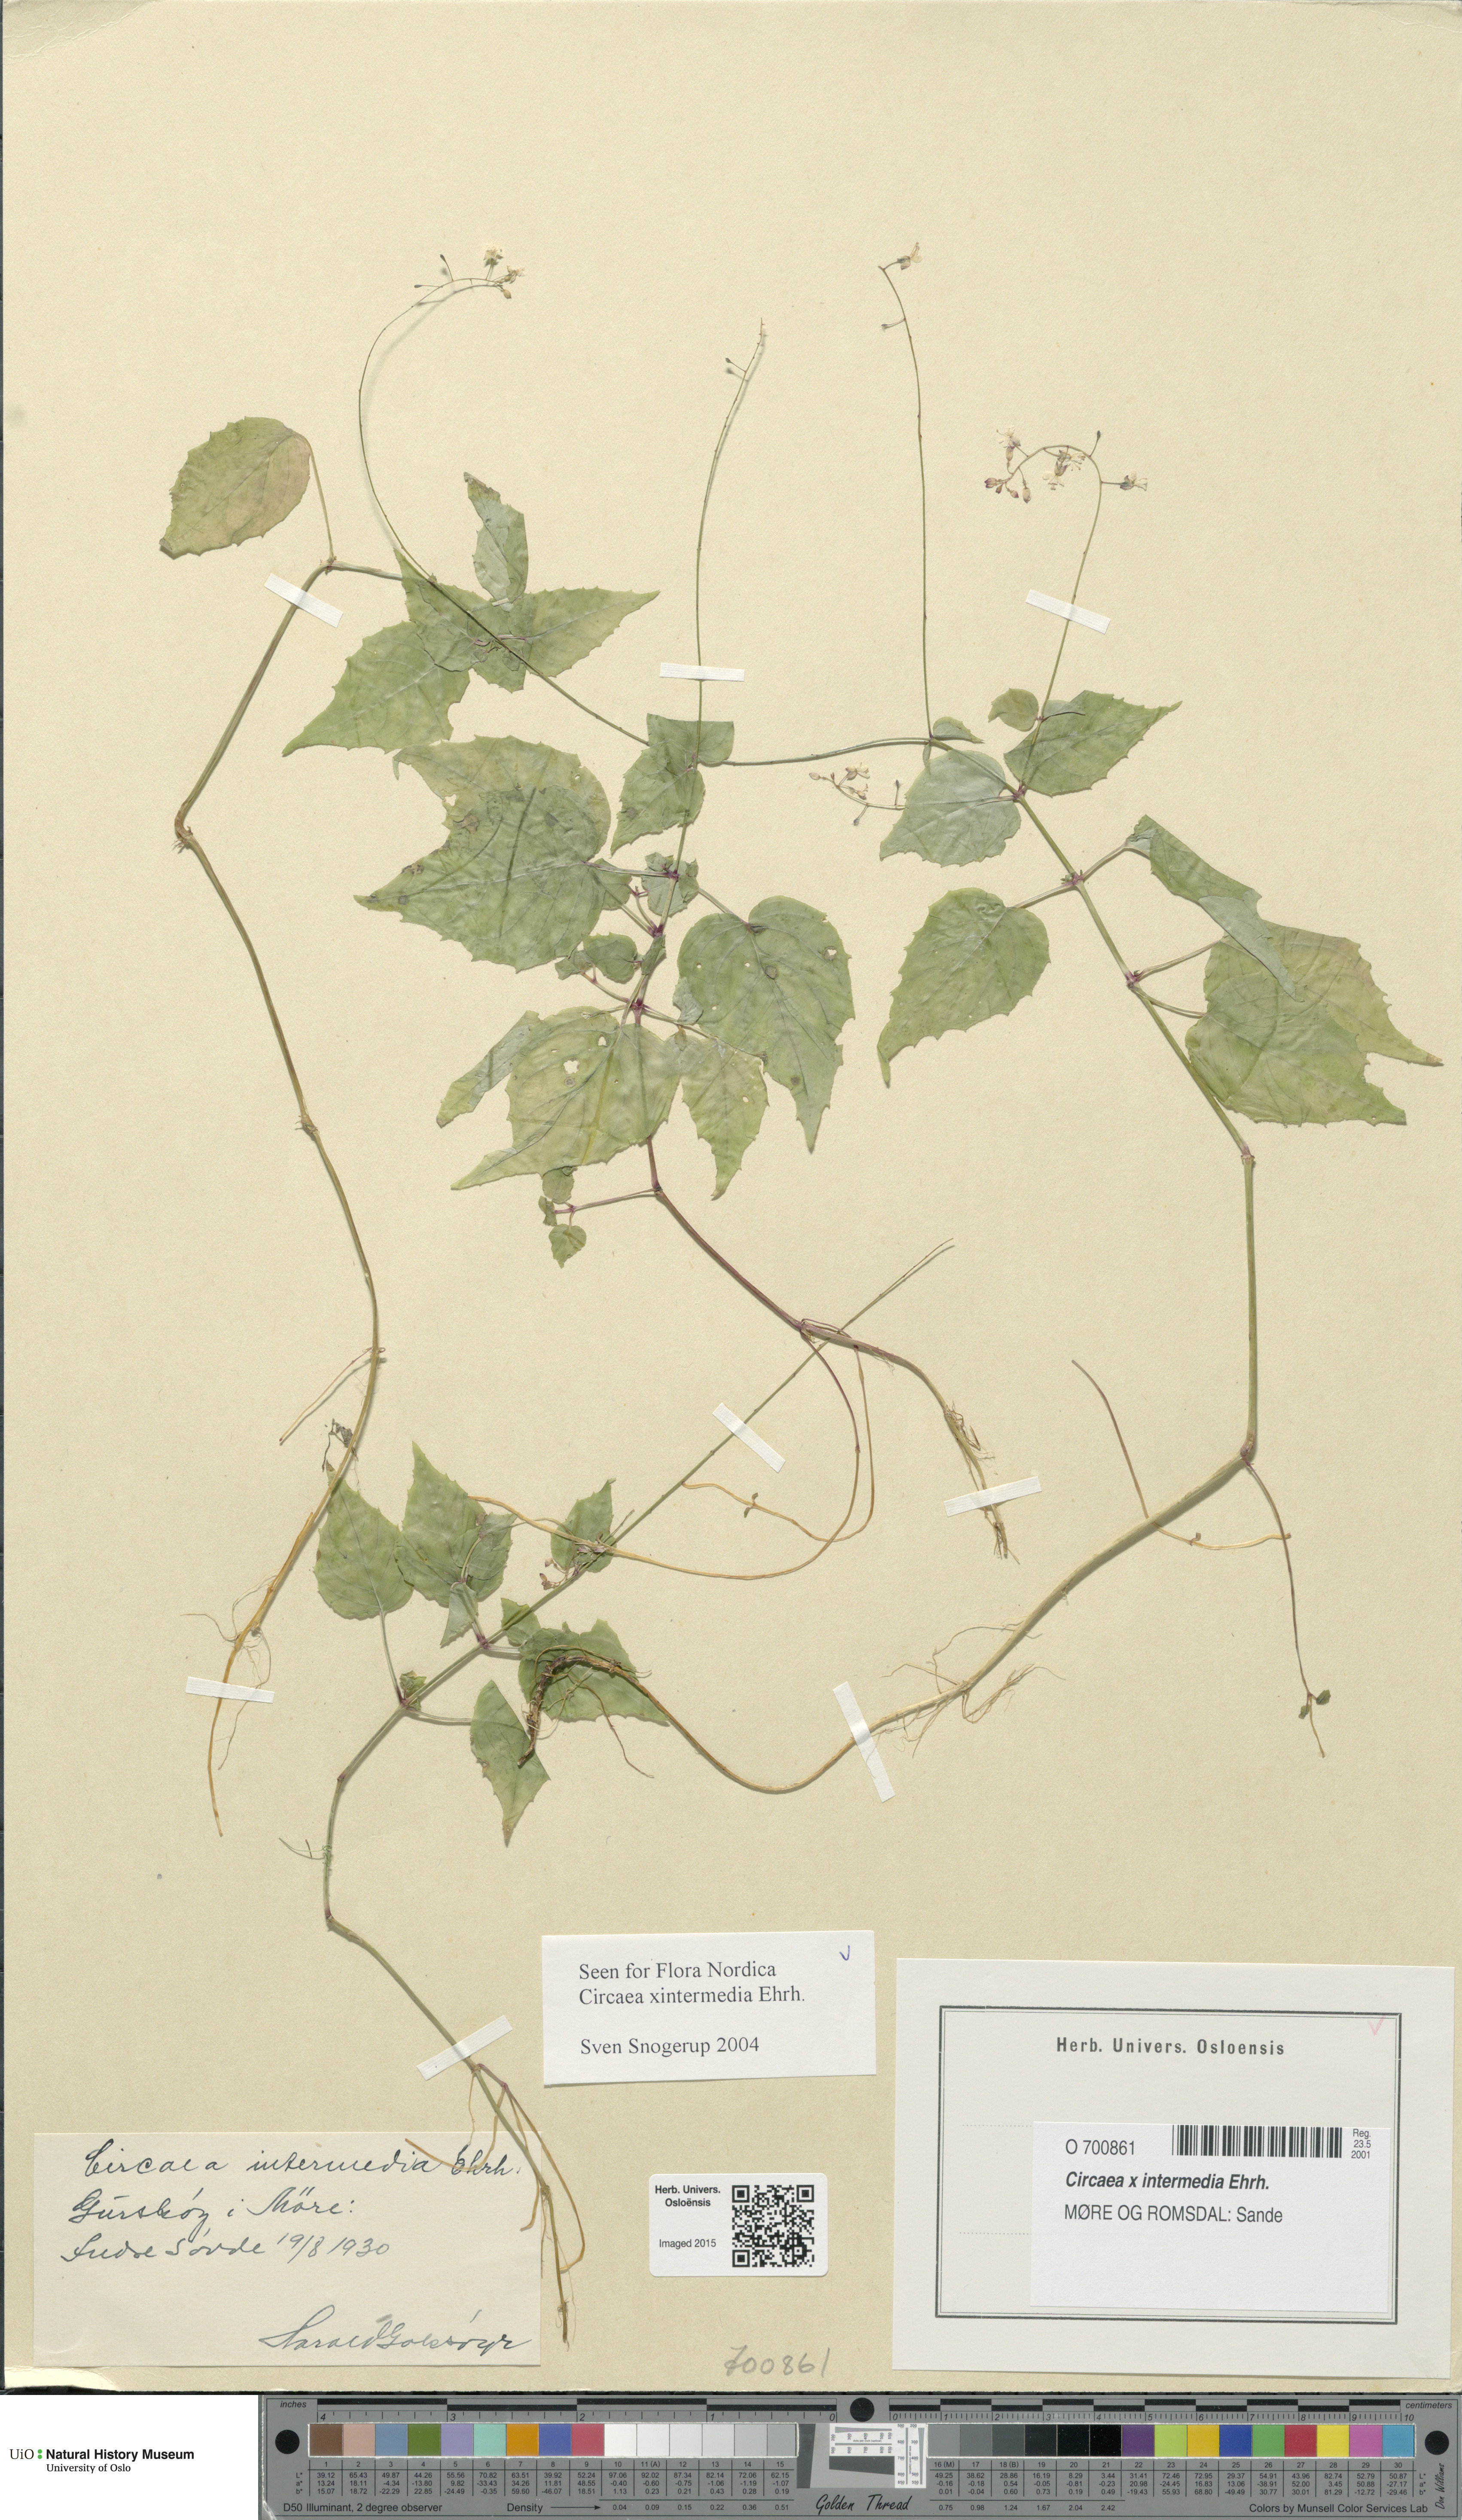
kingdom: Plantae
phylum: Tracheophyta
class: Magnoliopsida
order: Myrtales
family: Onagraceae
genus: Circaea
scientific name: Circaea intermedia
